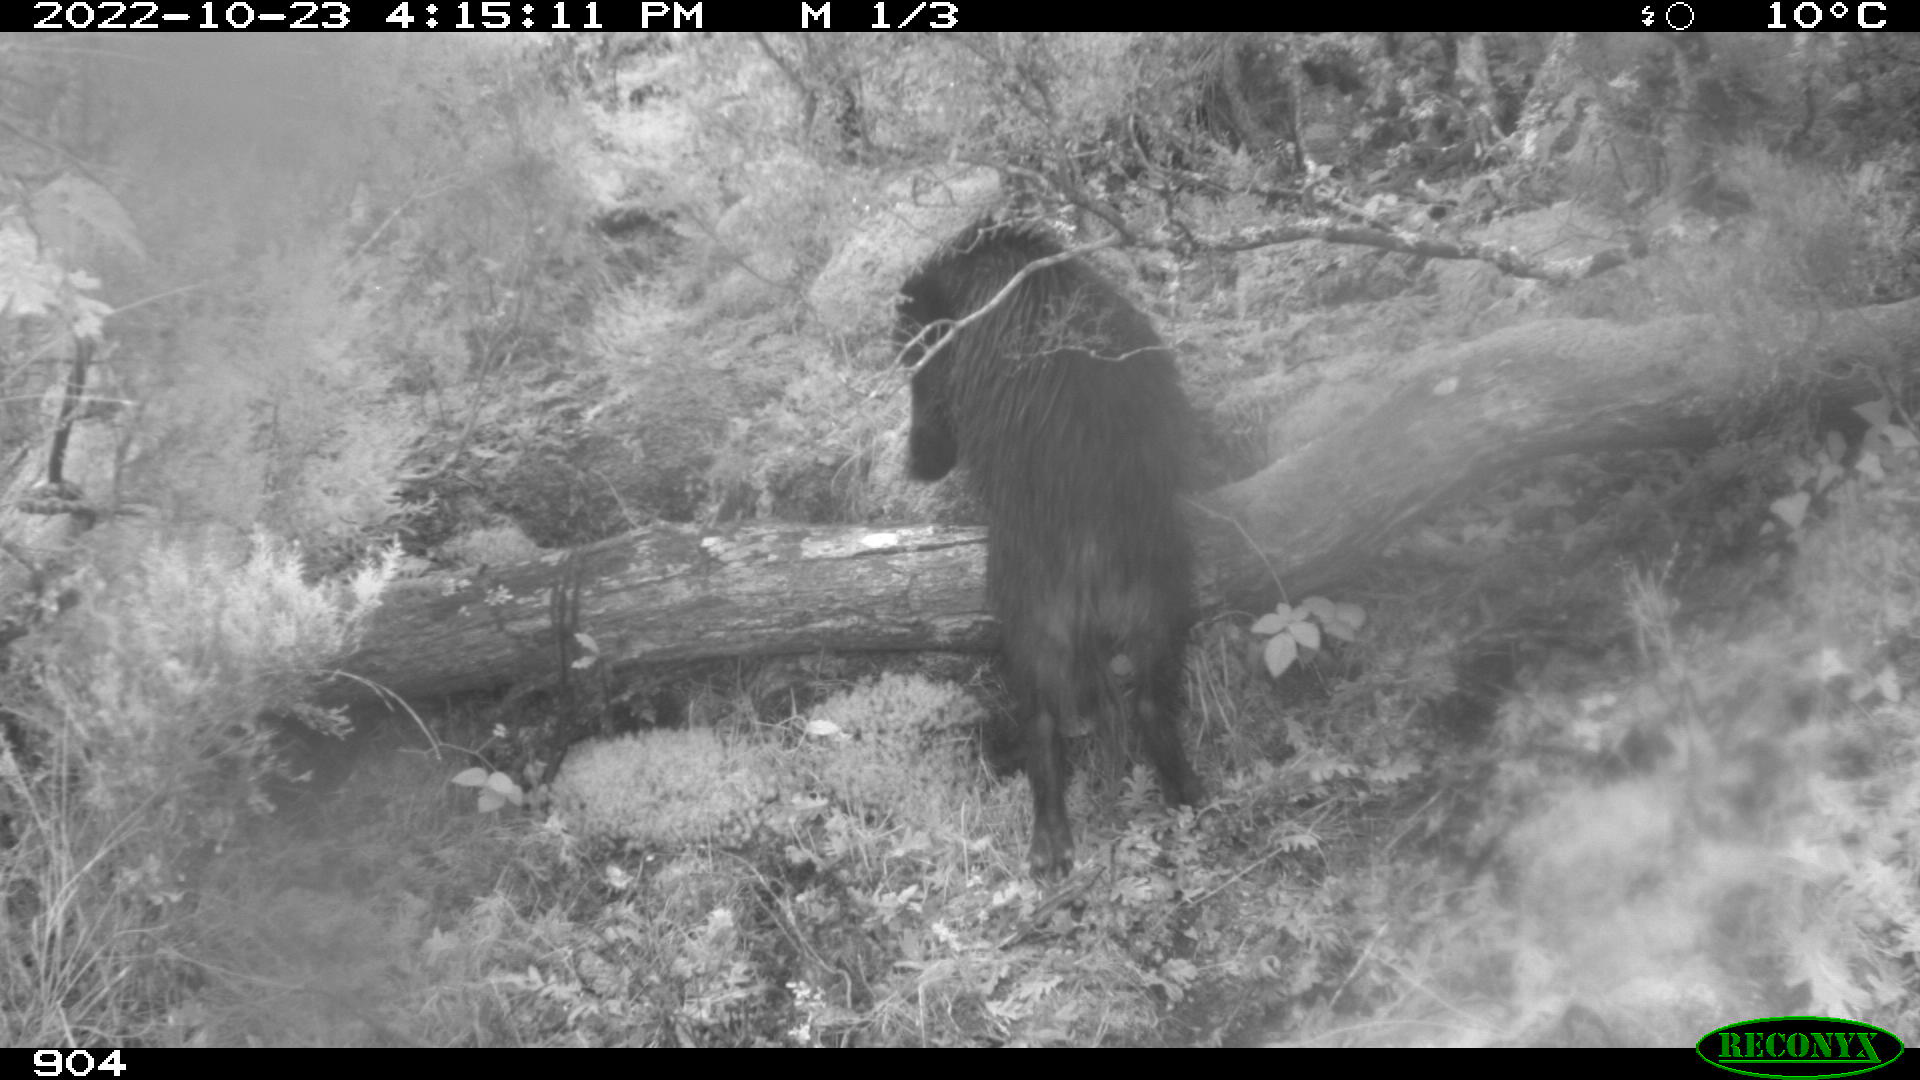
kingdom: Animalia
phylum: Chordata
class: Mammalia
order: Artiodactyla
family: Suidae
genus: Sus
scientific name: Sus scrofa
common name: Wild boar
